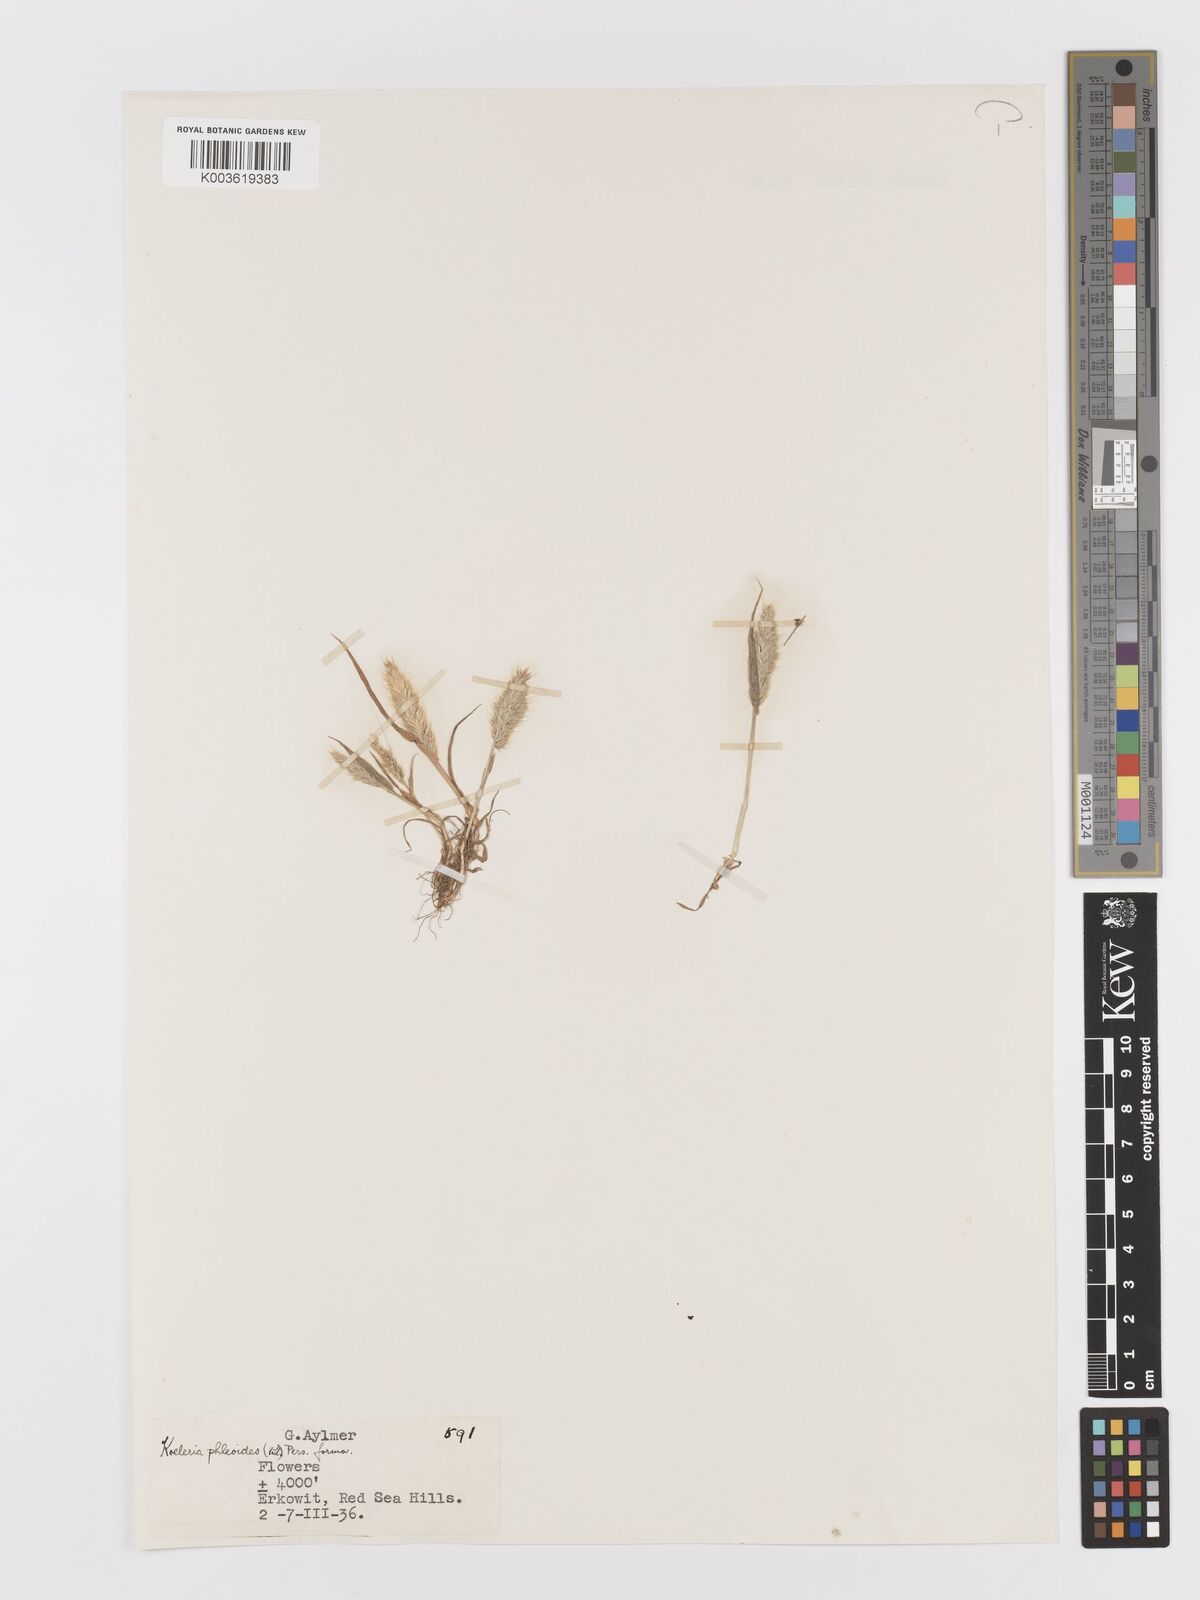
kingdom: Plantae
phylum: Tracheophyta
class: Liliopsida
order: Poales
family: Poaceae
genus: Rostraria
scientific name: Rostraria cristata
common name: Mediterranean hair-grass
